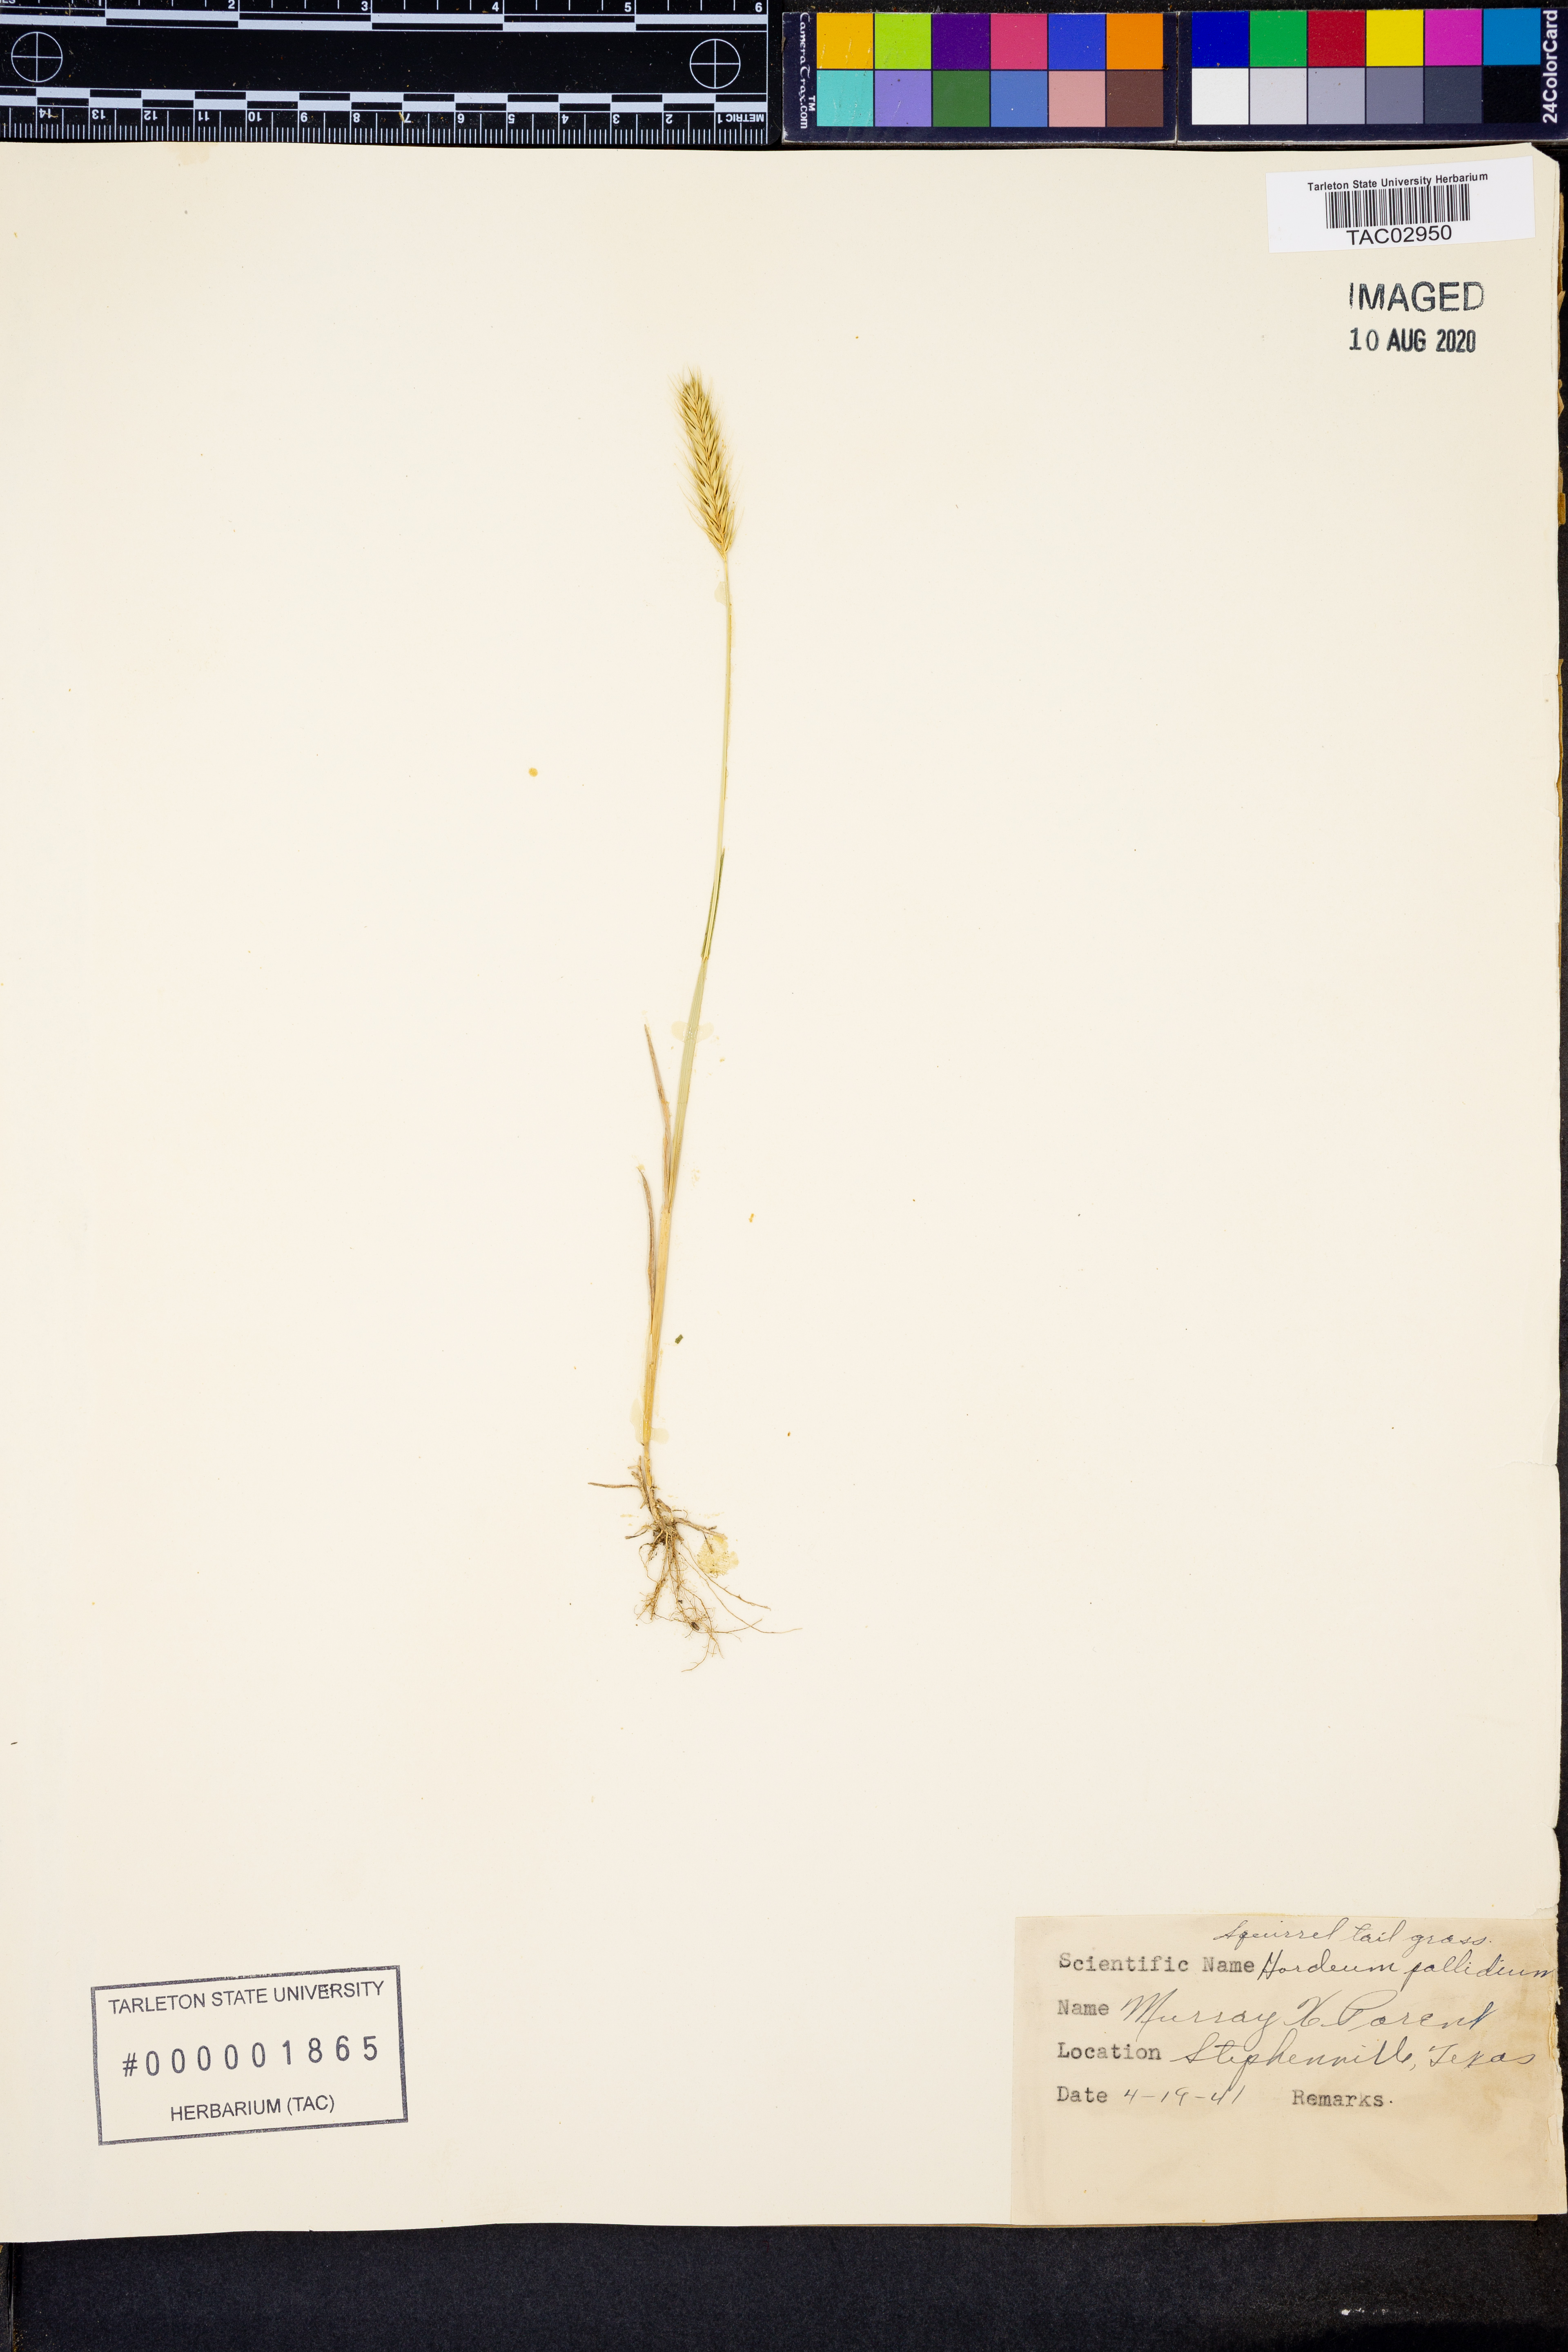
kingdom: Plantae
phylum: Tracheophyta
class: Liliopsida
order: Poales
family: Poaceae
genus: Hordeum
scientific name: Hordeum
